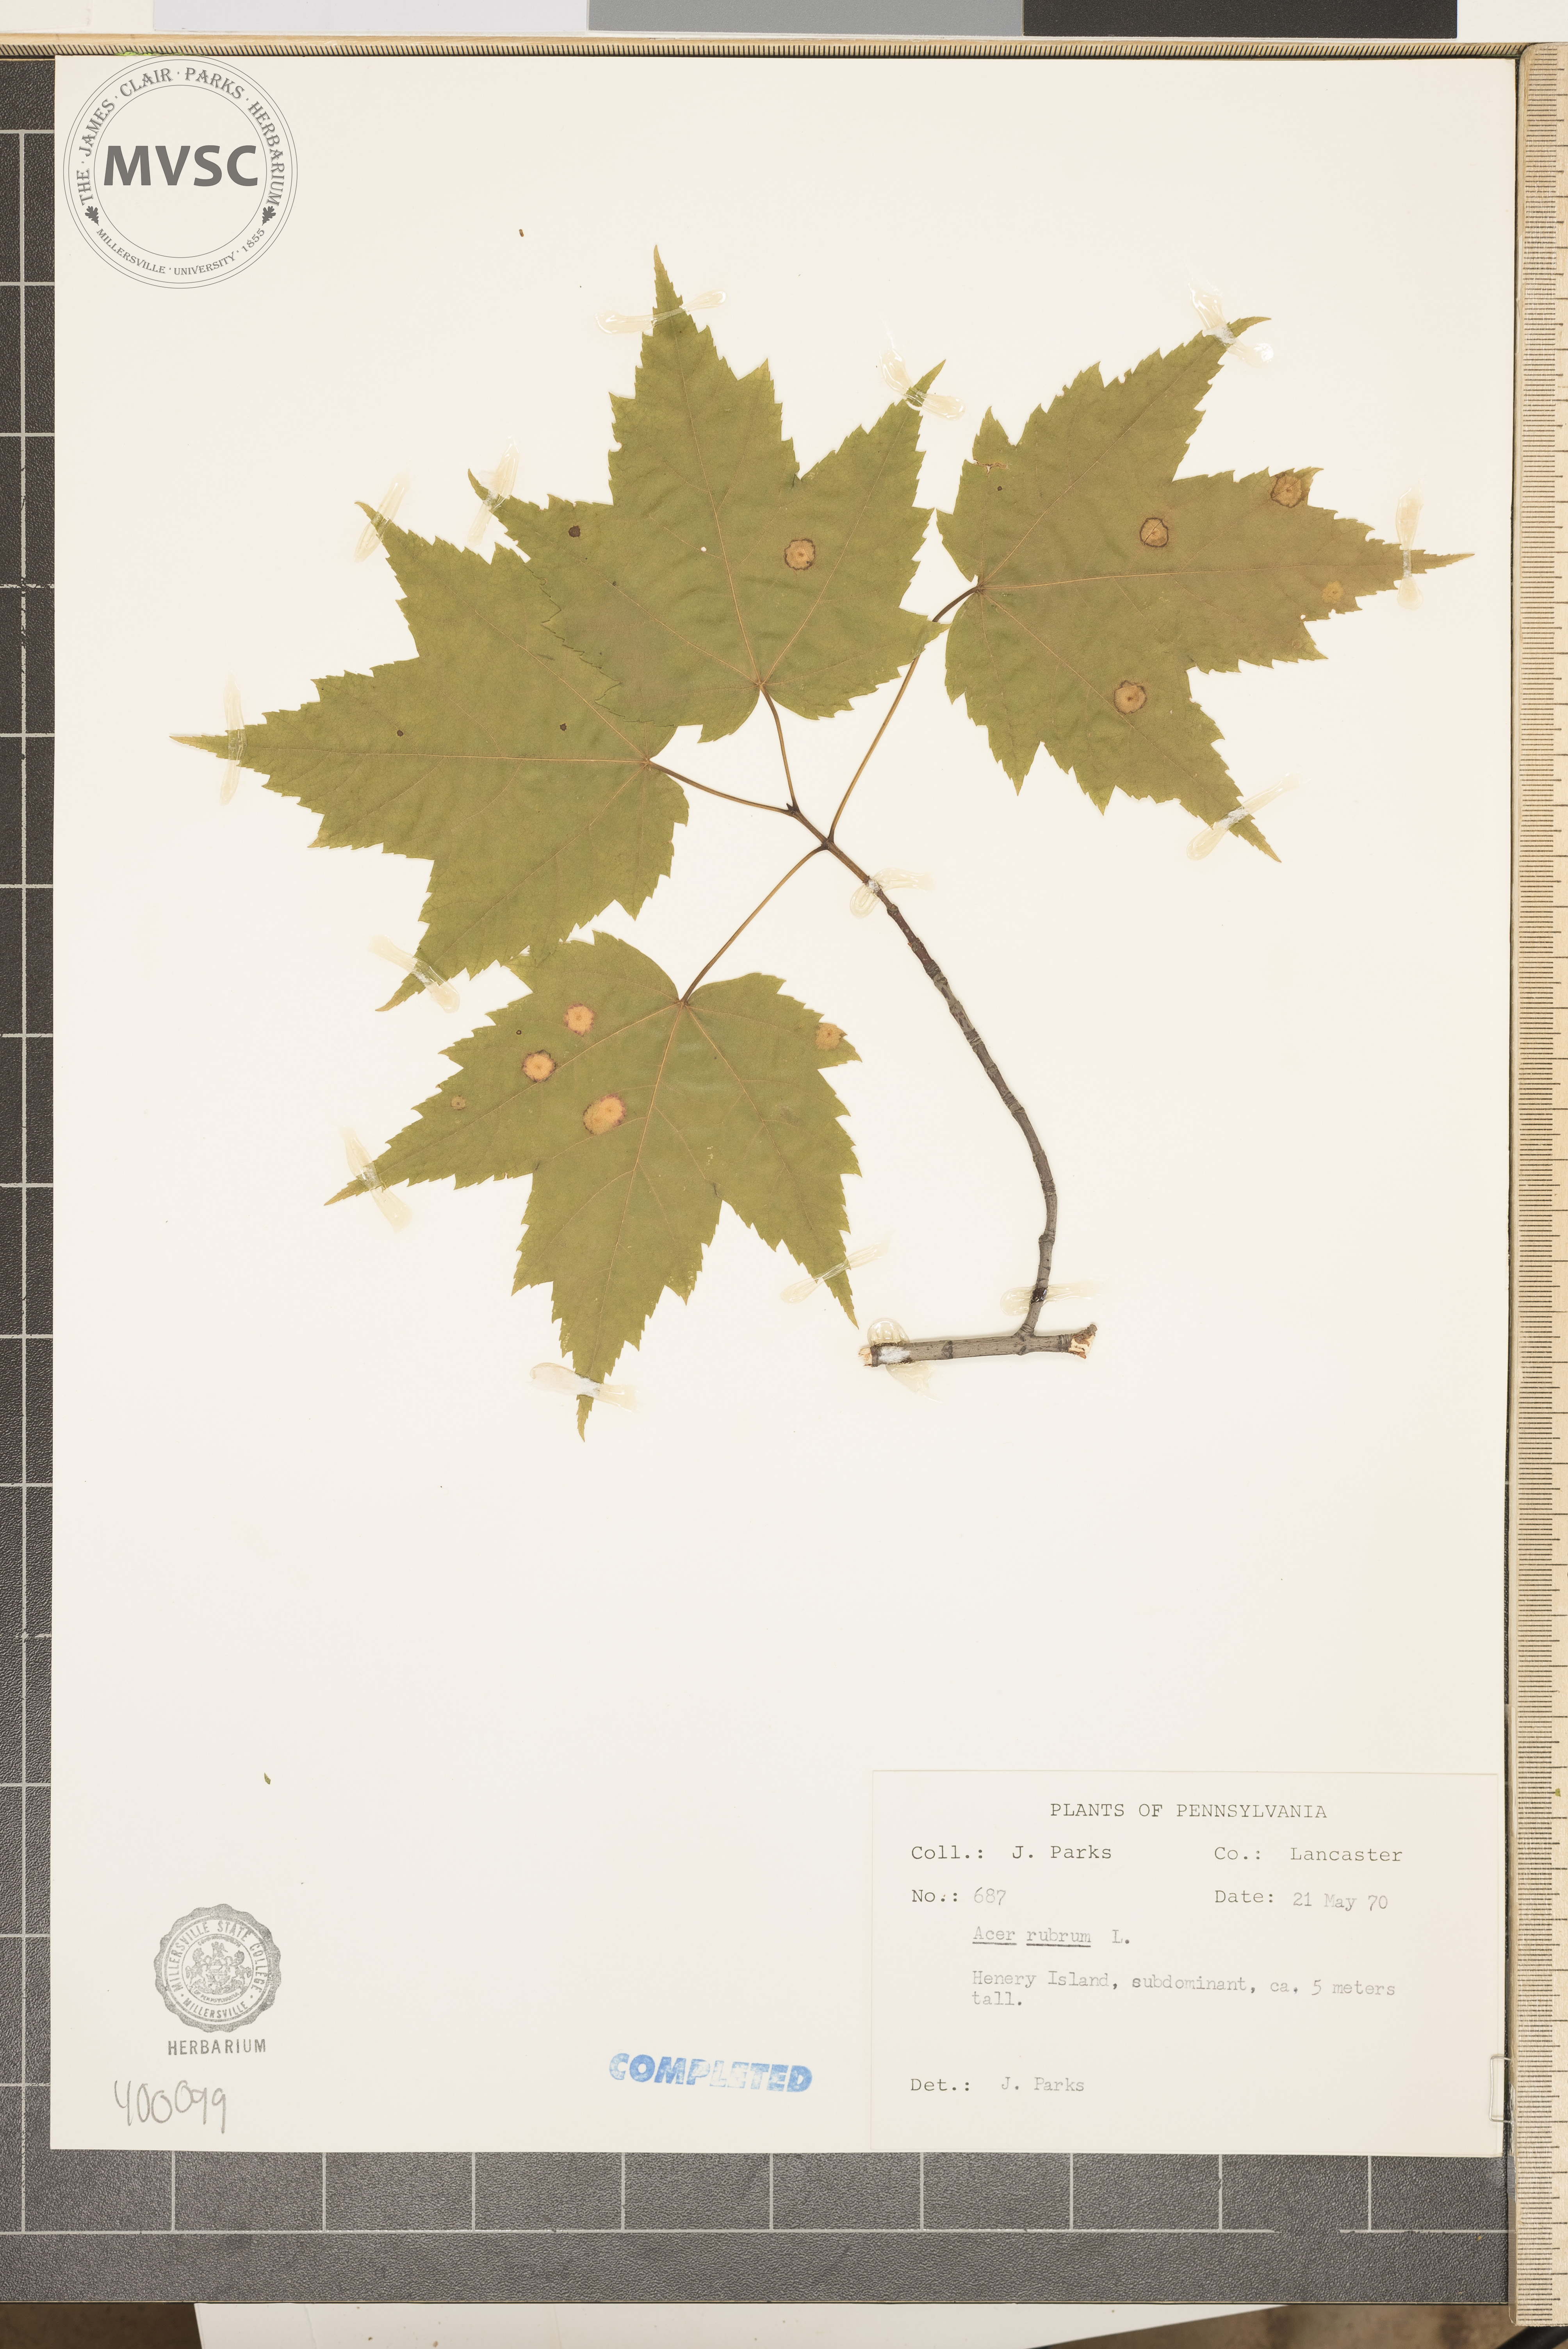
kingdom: Plantae
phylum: Tracheophyta
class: Magnoliopsida
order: Sapindales
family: Sapindaceae
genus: Acer
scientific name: Acer rubrum
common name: red maple
